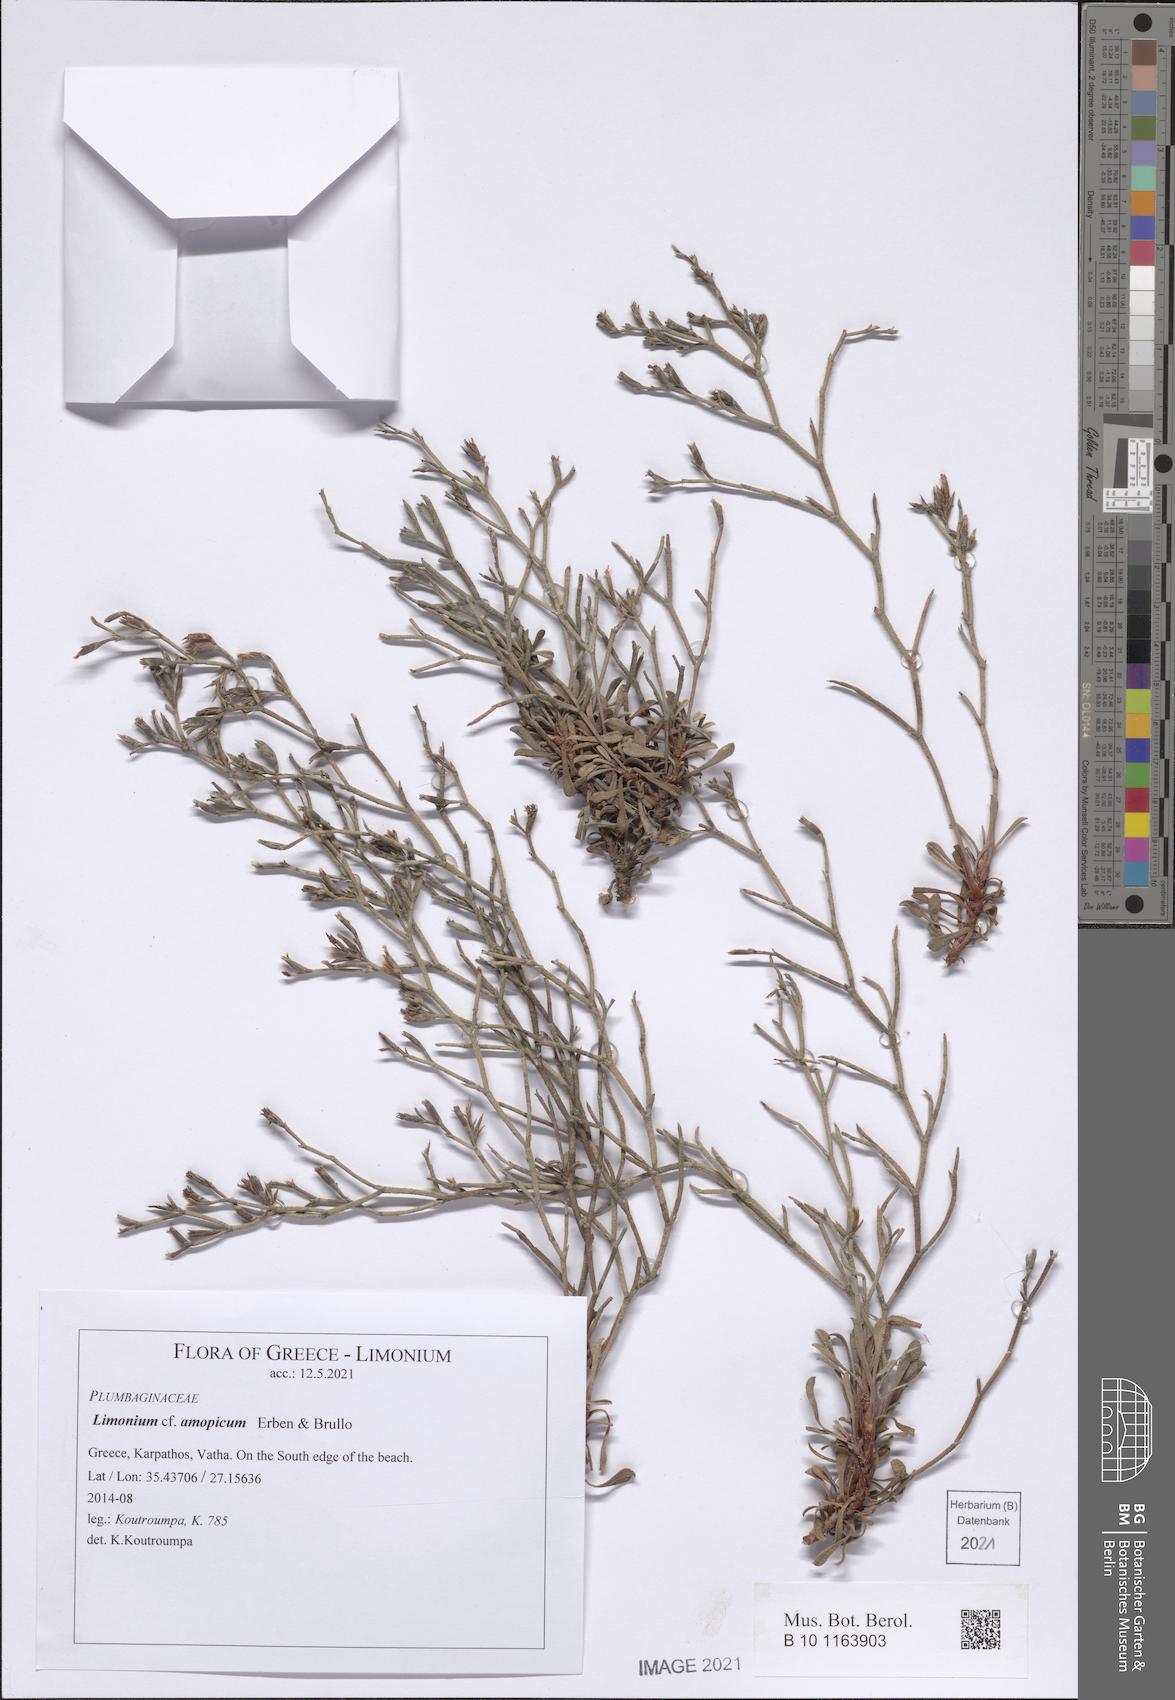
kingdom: Plantae
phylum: Tracheophyta
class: Magnoliopsida
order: Caryophyllales
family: Plumbaginaceae
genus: Limonium
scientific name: Limonium amopicum
